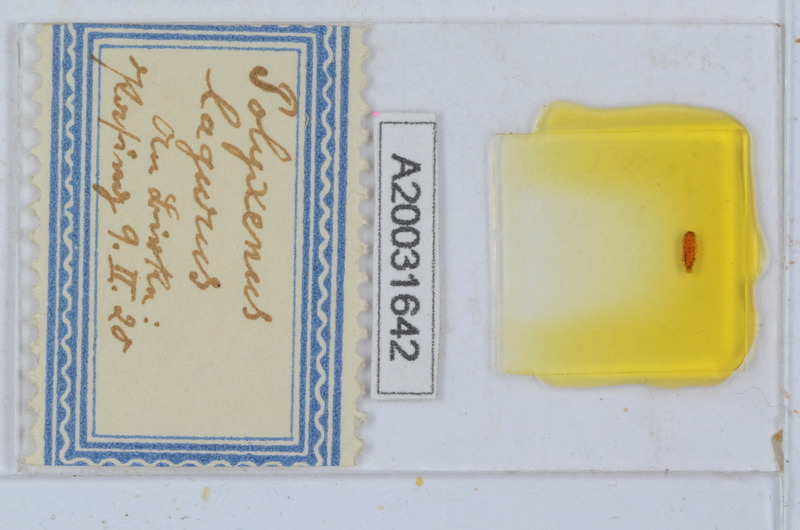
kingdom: Animalia
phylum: Arthropoda
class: Diplopoda
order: Polyxenida
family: Polyxenidae
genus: Polyxenus
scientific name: Polyxenus lagurus
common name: Bristly millipede
